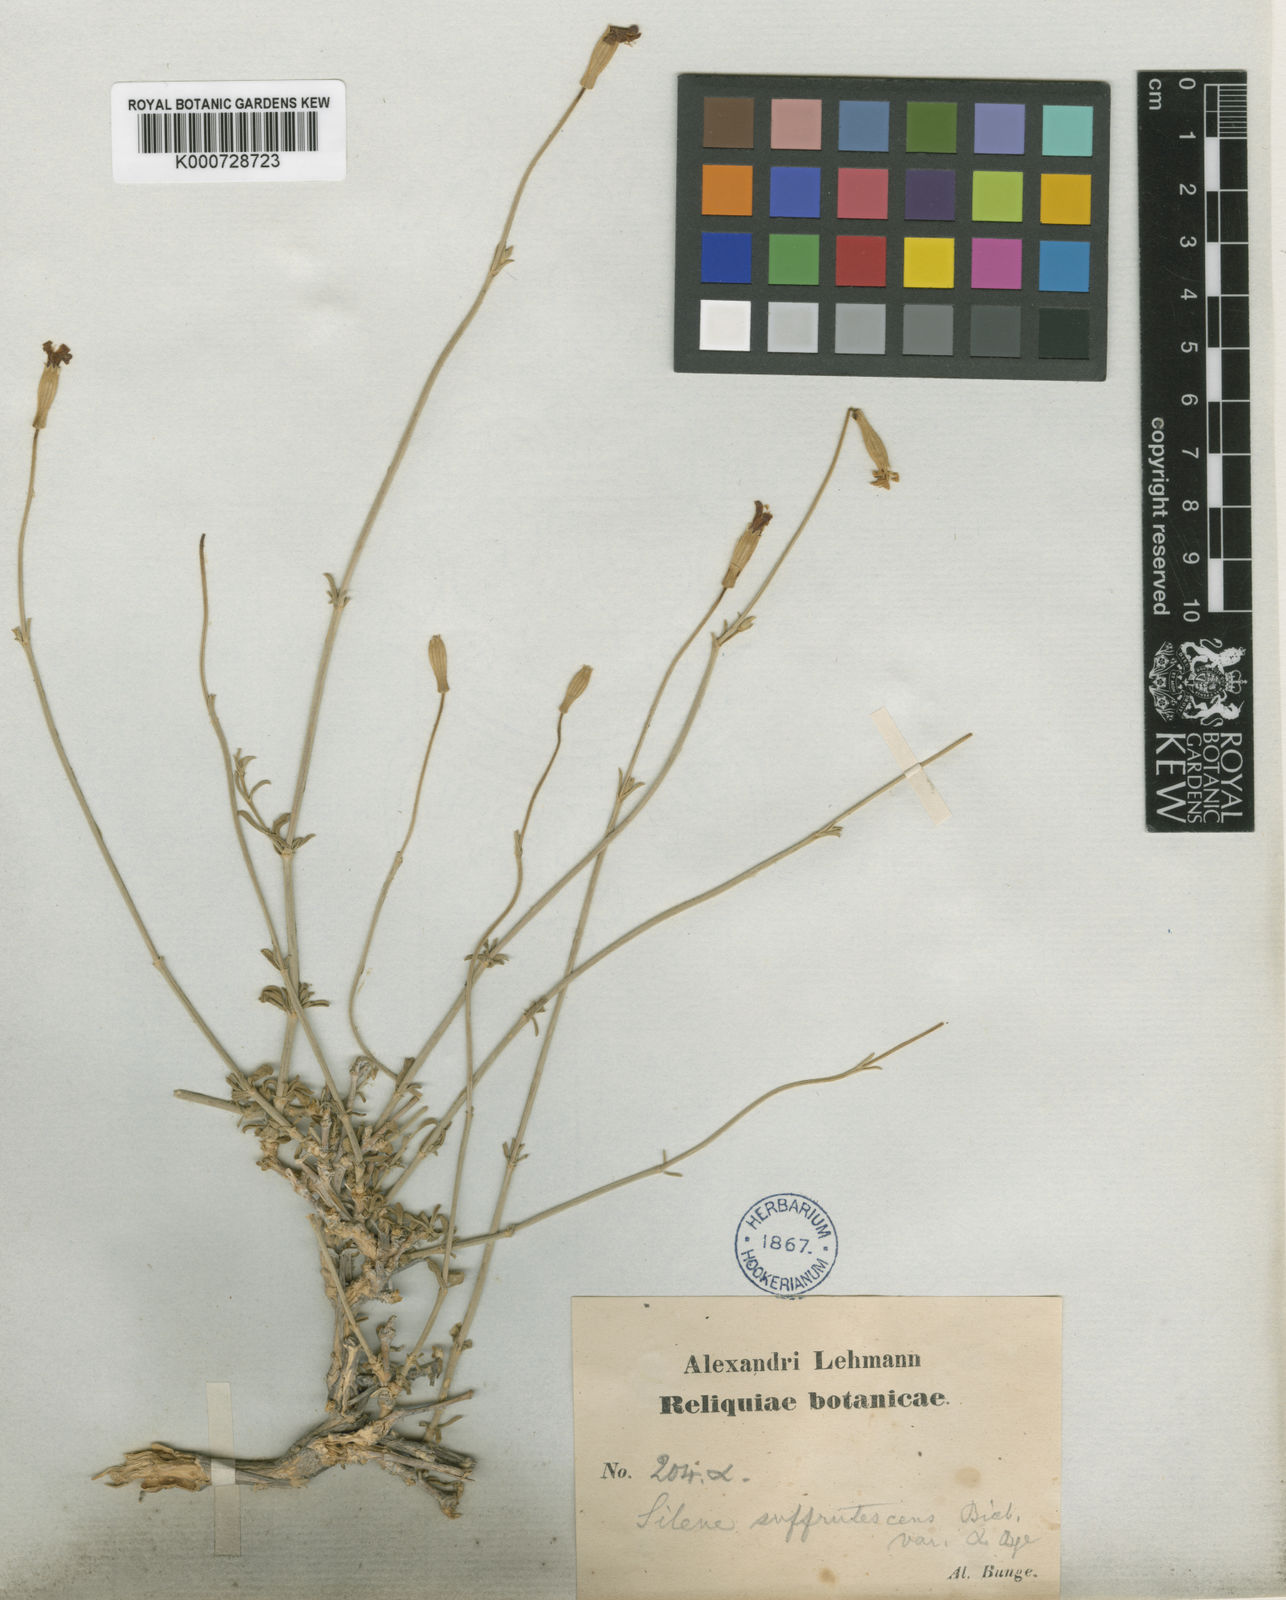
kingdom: Plantae
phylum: Tracheophyta
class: Magnoliopsida
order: Caryophyllales
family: Caryophyllaceae
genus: Silene
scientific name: Silene fruticulosa
